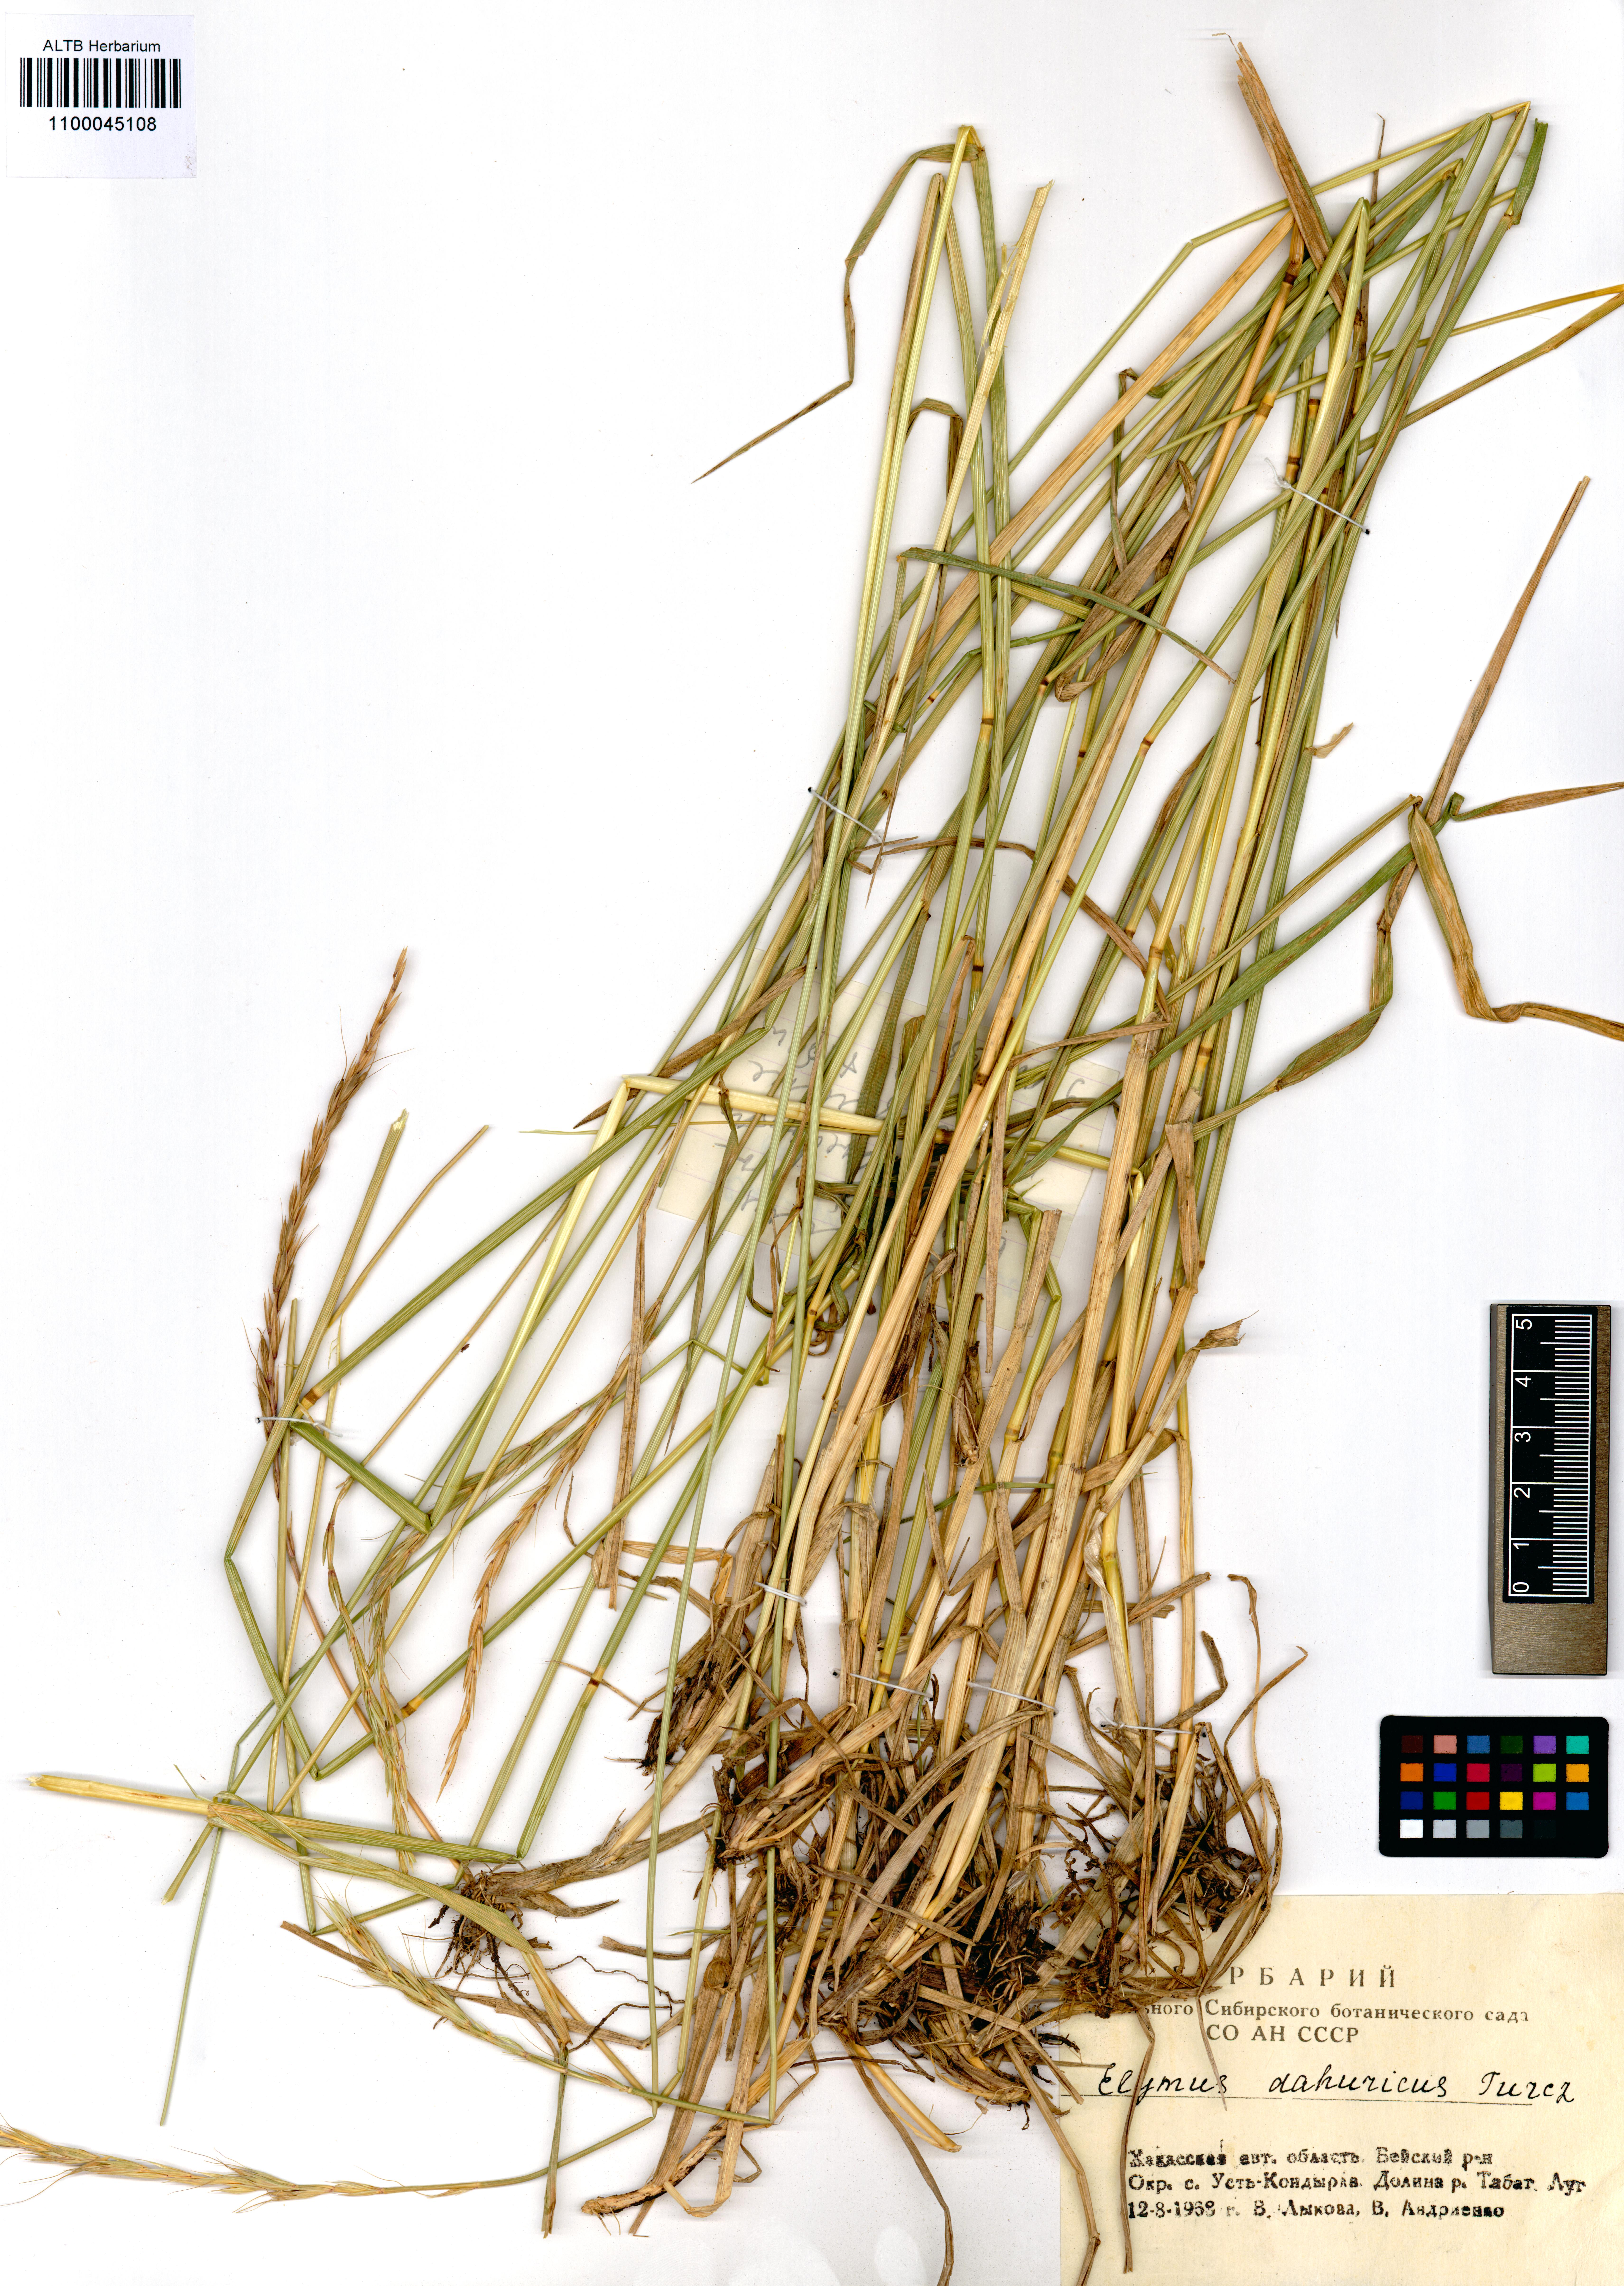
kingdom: Plantae
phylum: Tracheophyta
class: Liliopsida
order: Poales
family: Poaceae
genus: Elymus
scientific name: Elymus dahuricus
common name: Dahurian wild rye
